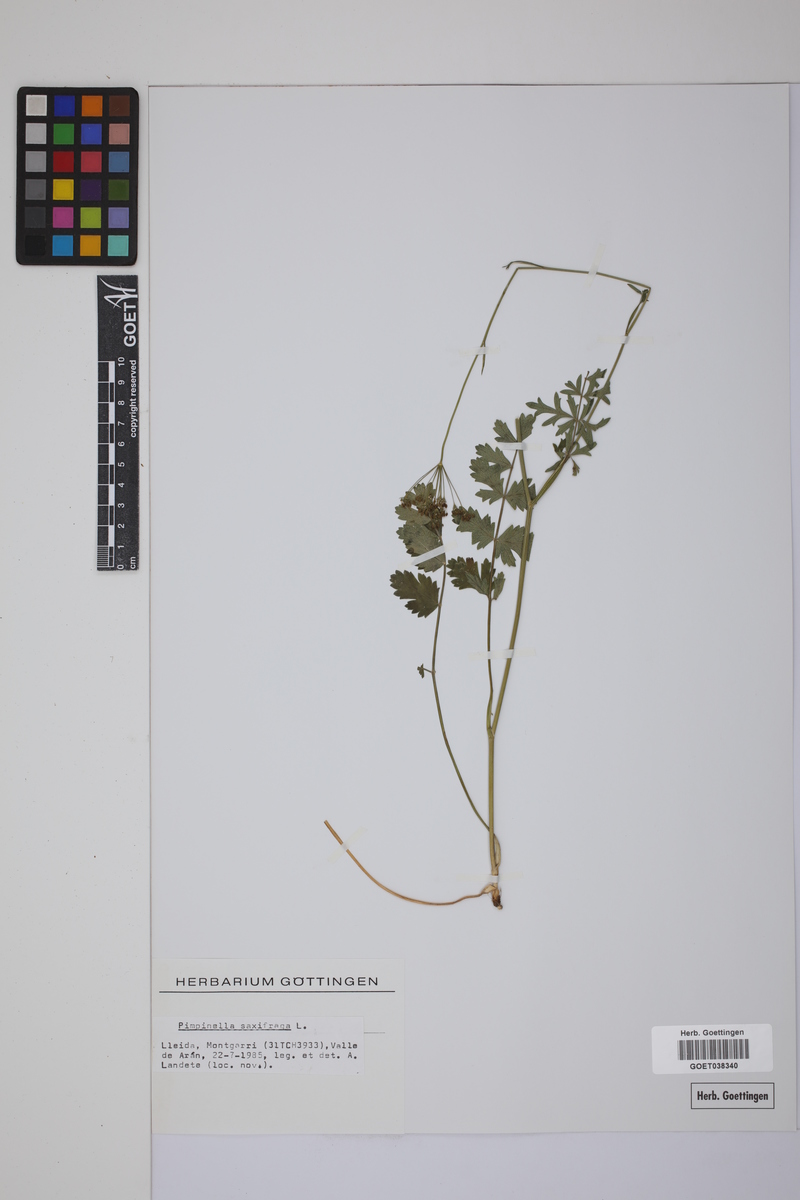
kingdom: Plantae
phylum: Tracheophyta
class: Magnoliopsida
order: Apiales
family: Apiaceae
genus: Pimpinella
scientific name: Pimpinella saxifraga
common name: Burnet-saxifrage
